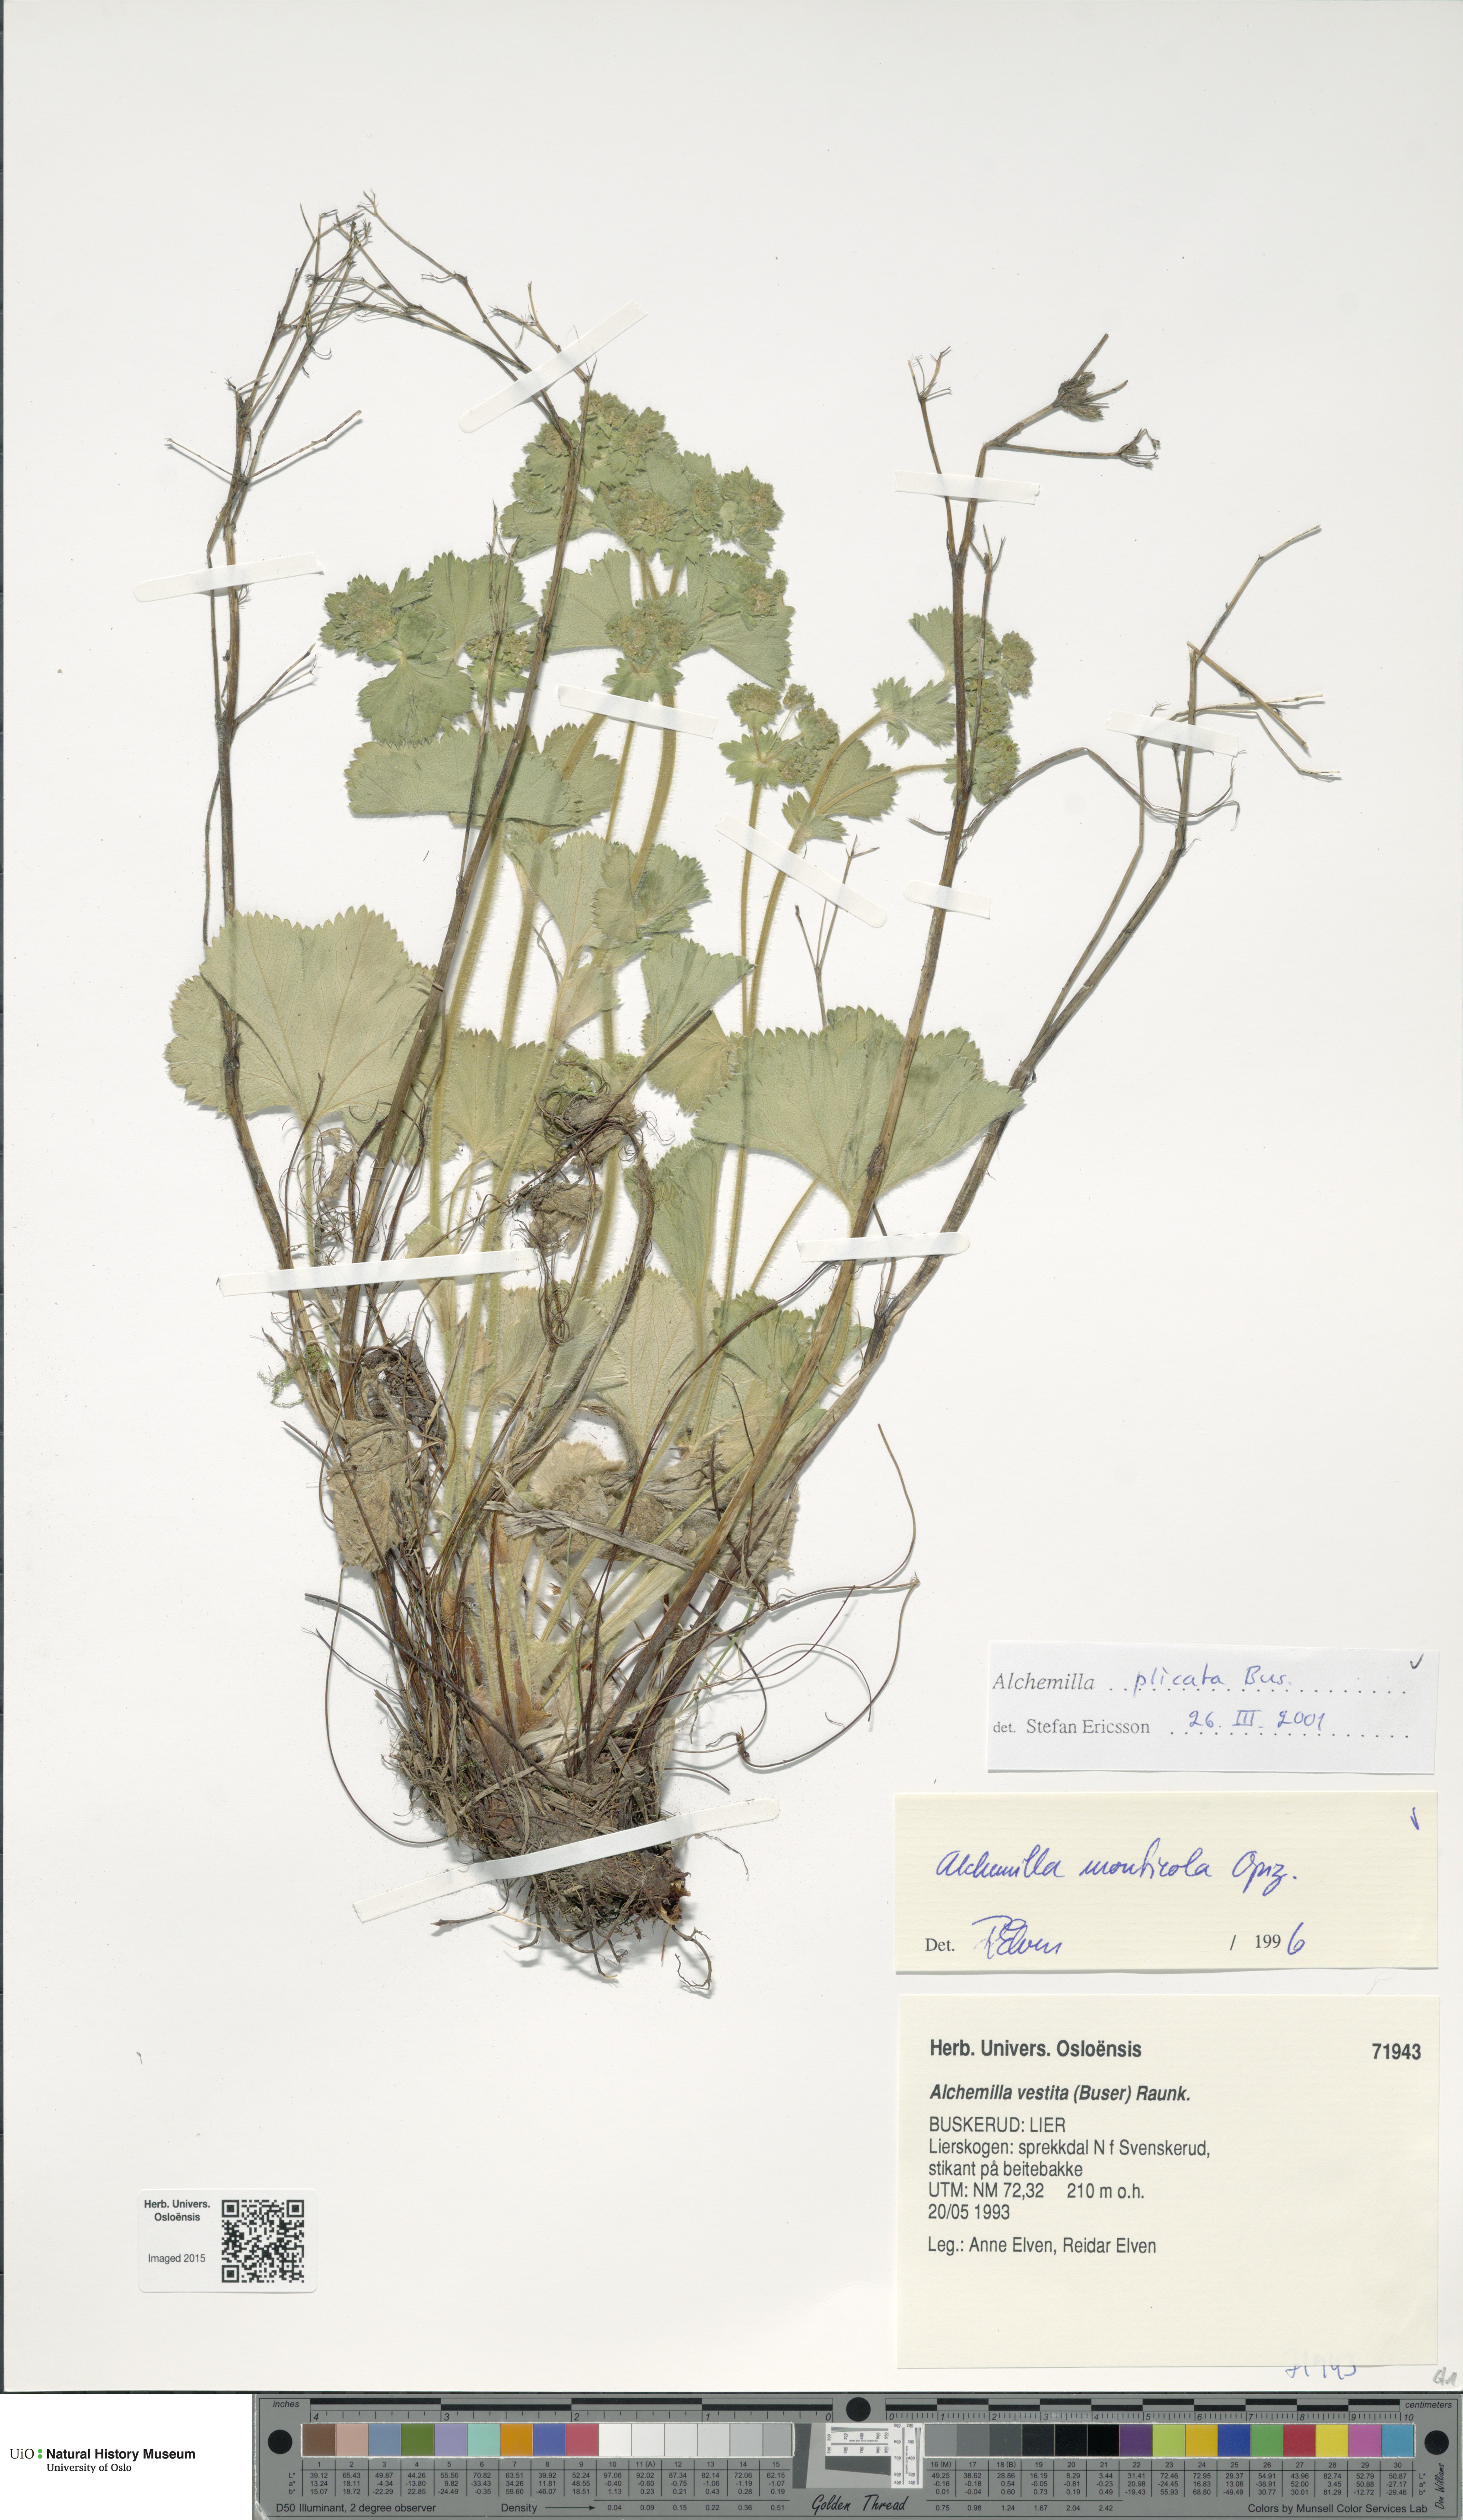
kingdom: Plantae
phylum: Tracheophyta
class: Magnoliopsida
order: Rosales
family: Rosaceae
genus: Alchemilla
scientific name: Alchemilla plicata
